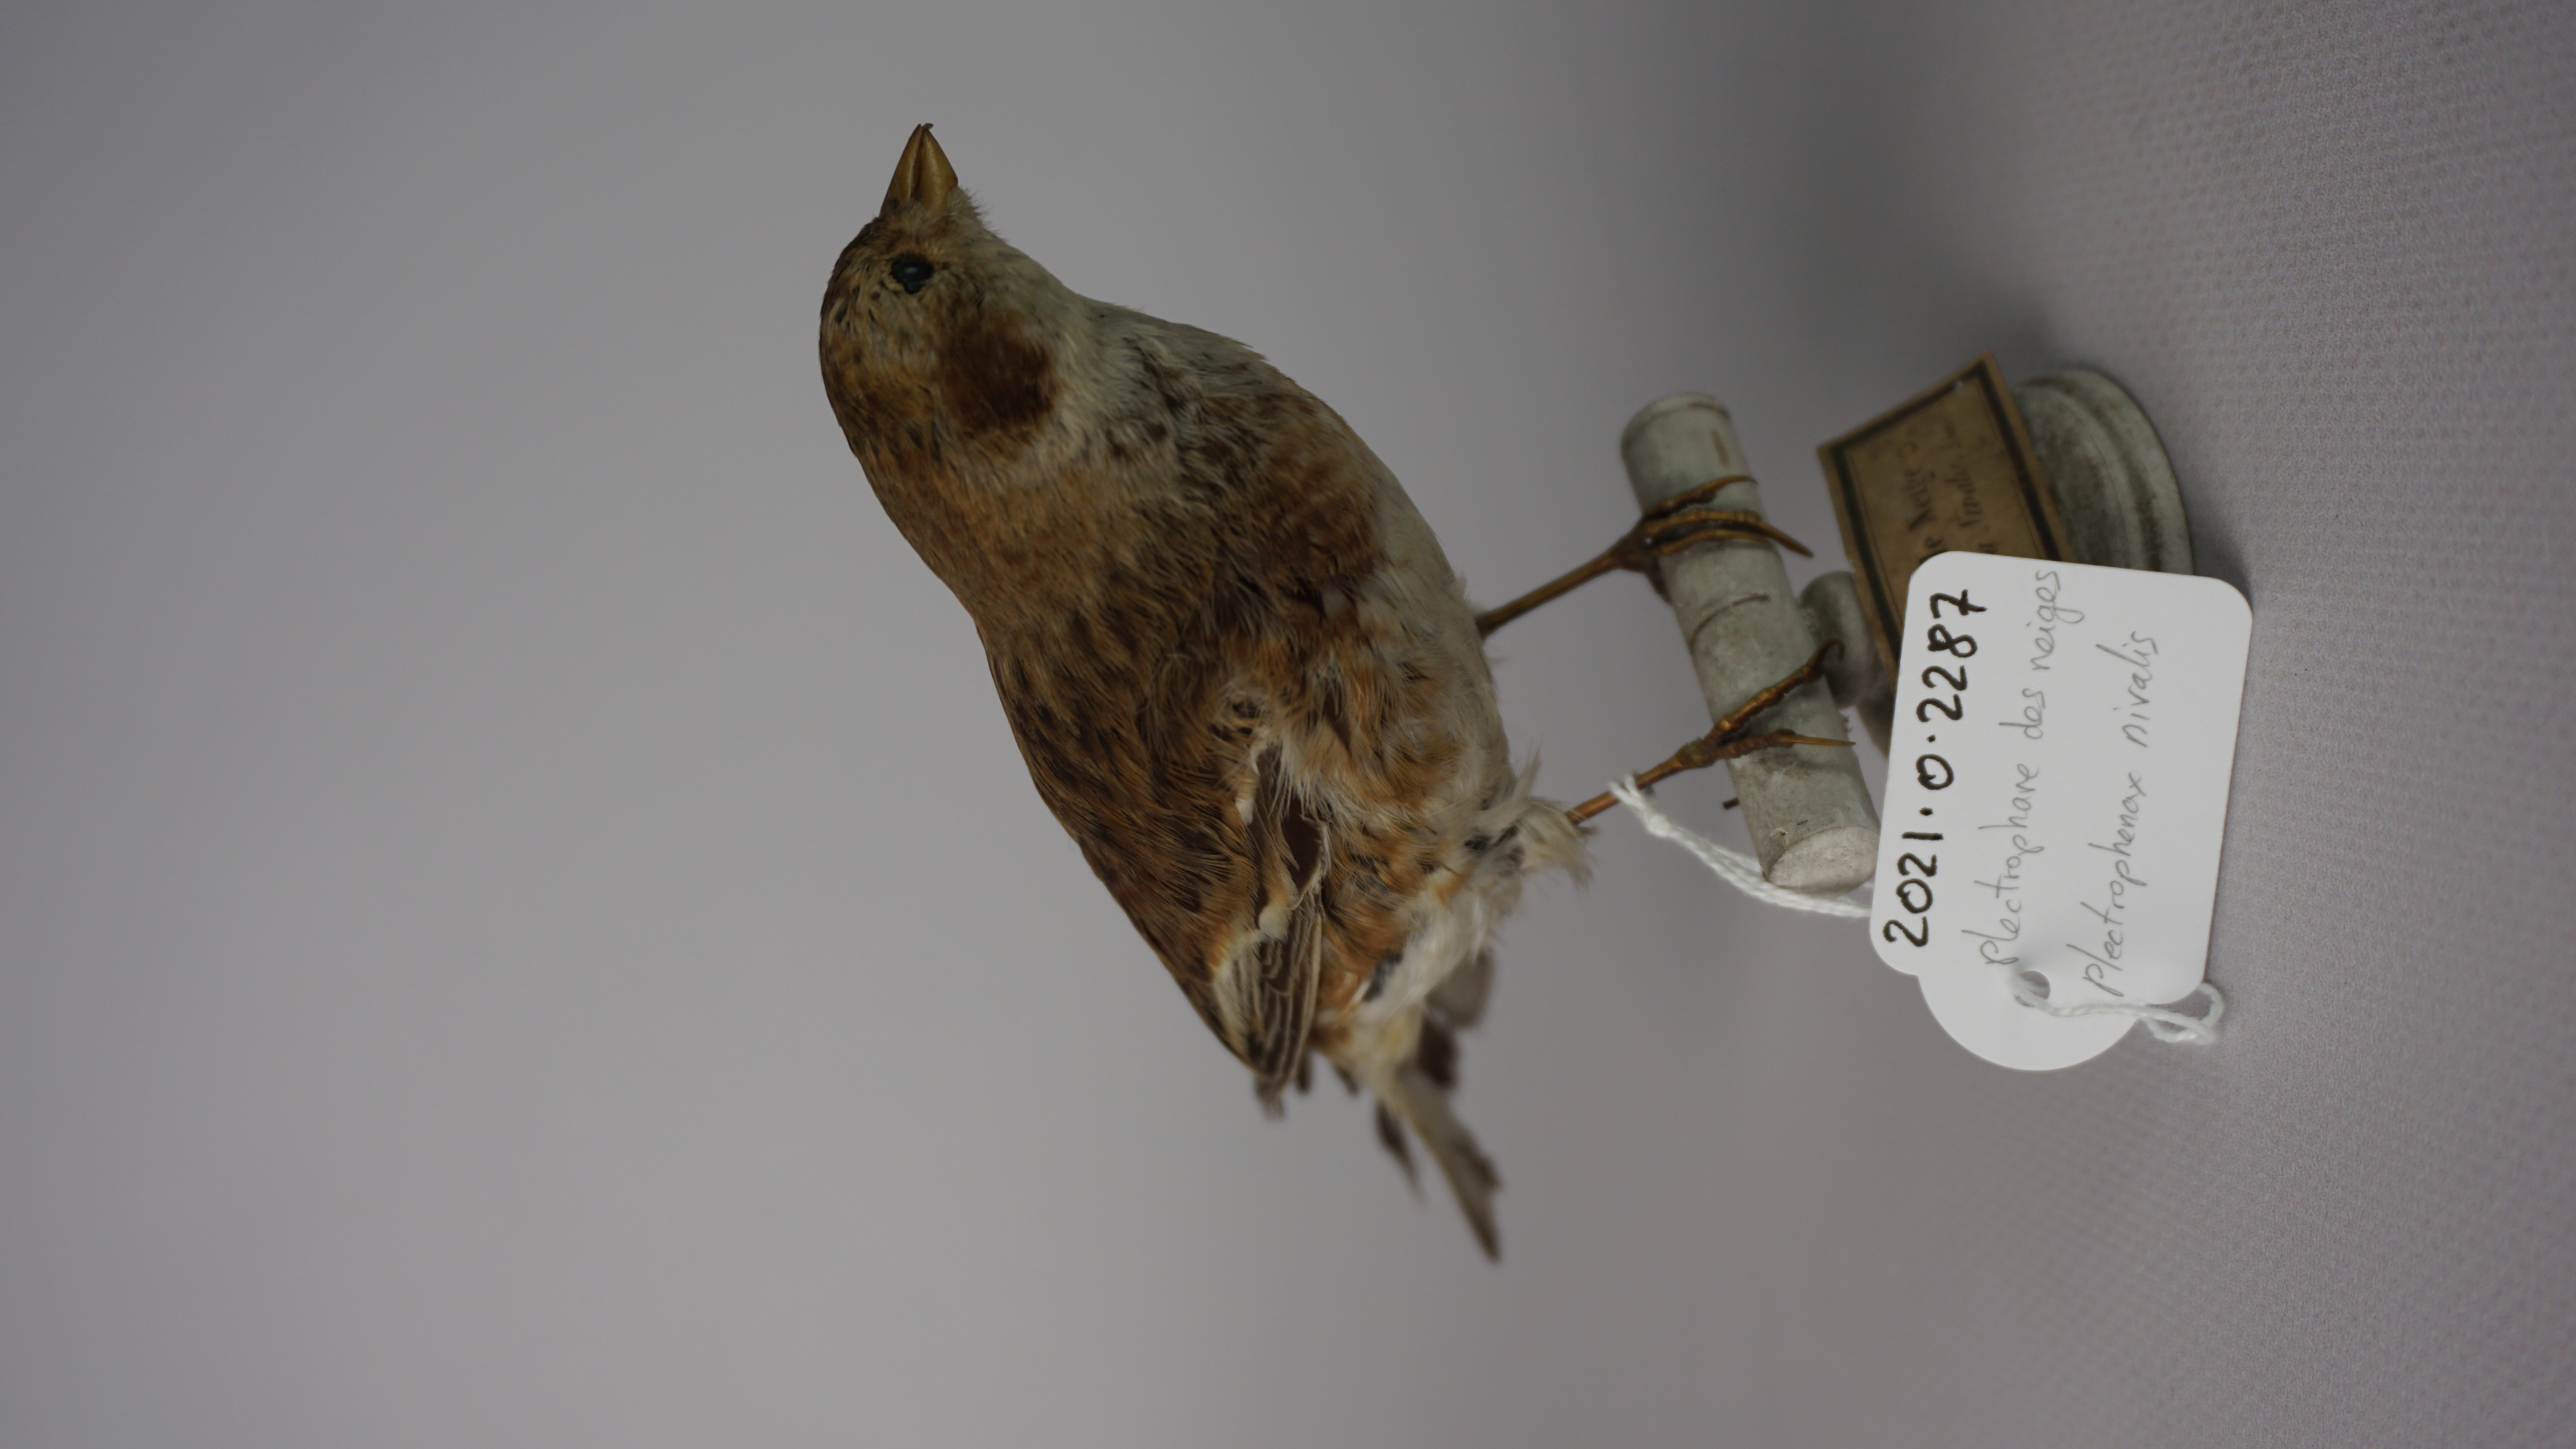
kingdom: Animalia
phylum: Chordata
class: Aves
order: Passeriformes
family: Calcariidae
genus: Plectrophenax
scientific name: Plectrophenax nivalis
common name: Snow bunting
